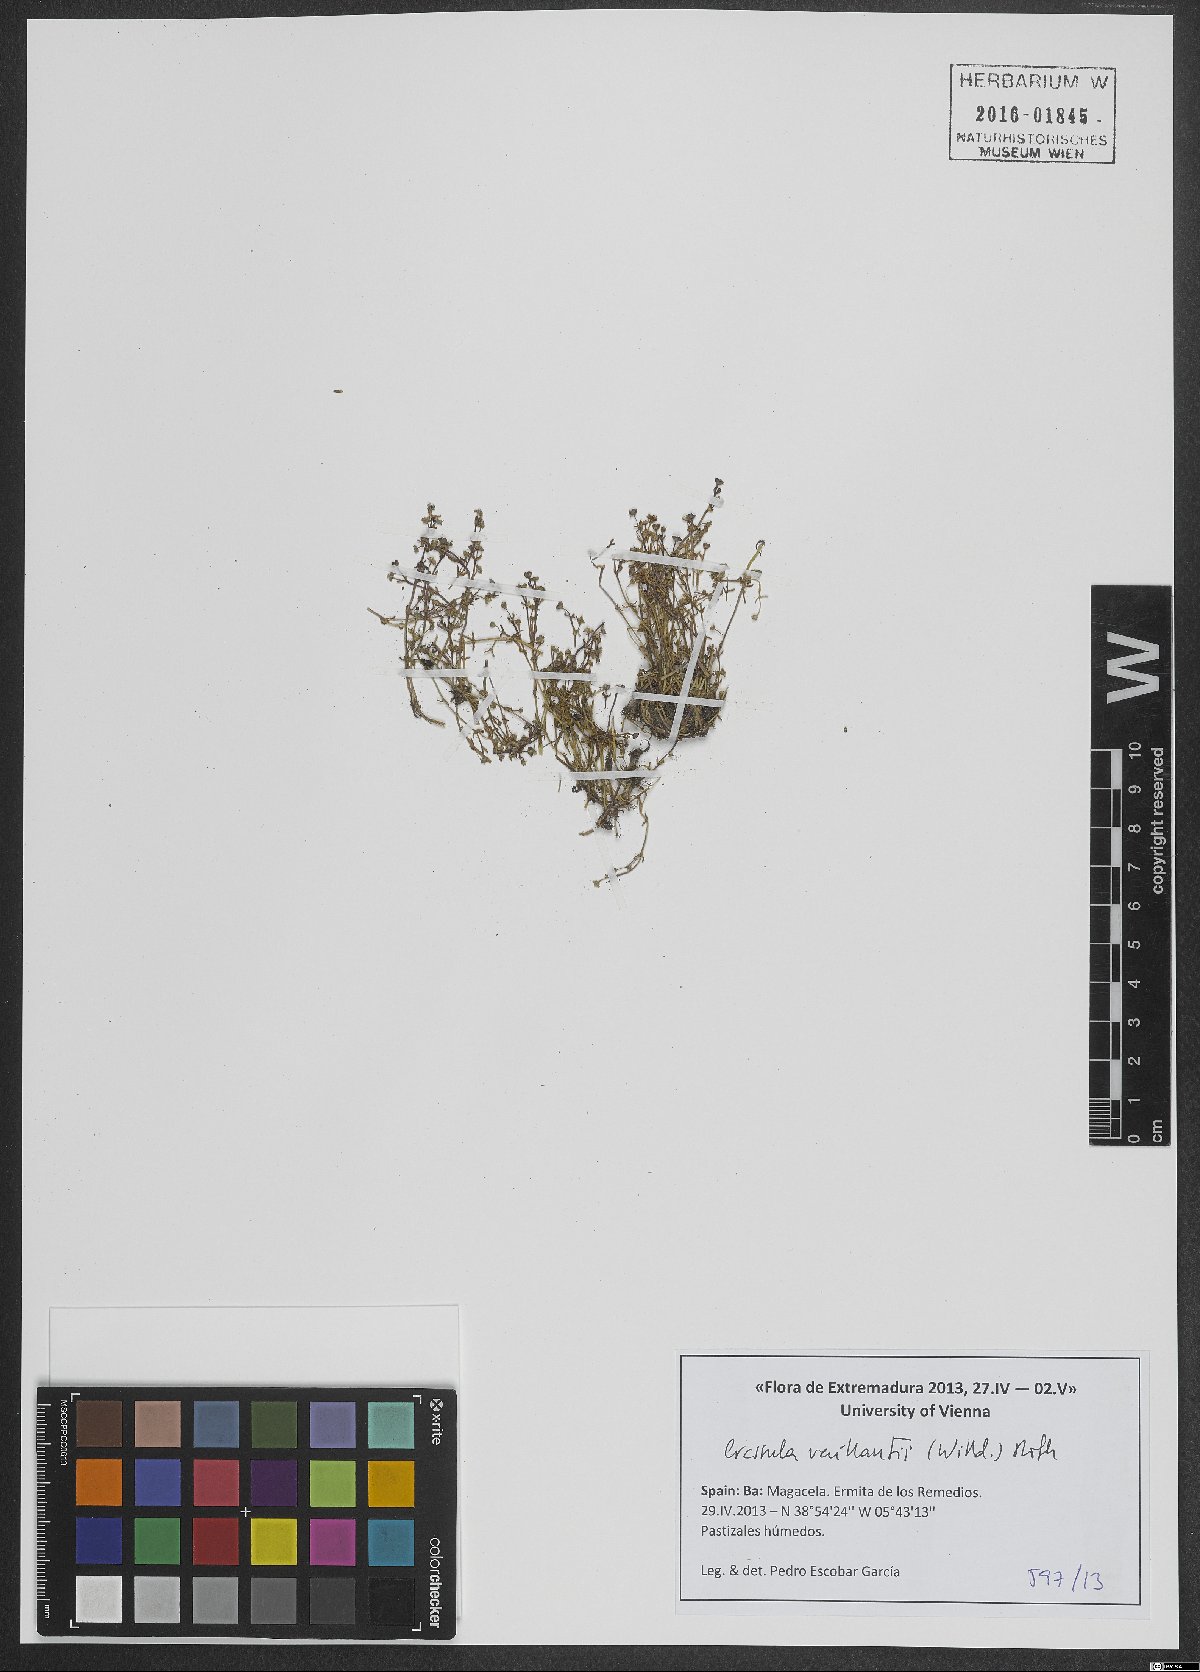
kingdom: Plantae
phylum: Tracheophyta
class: Magnoliopsida
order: Saxifragales
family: Crassulaceae
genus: Crassula
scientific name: Crassula vaillantii
